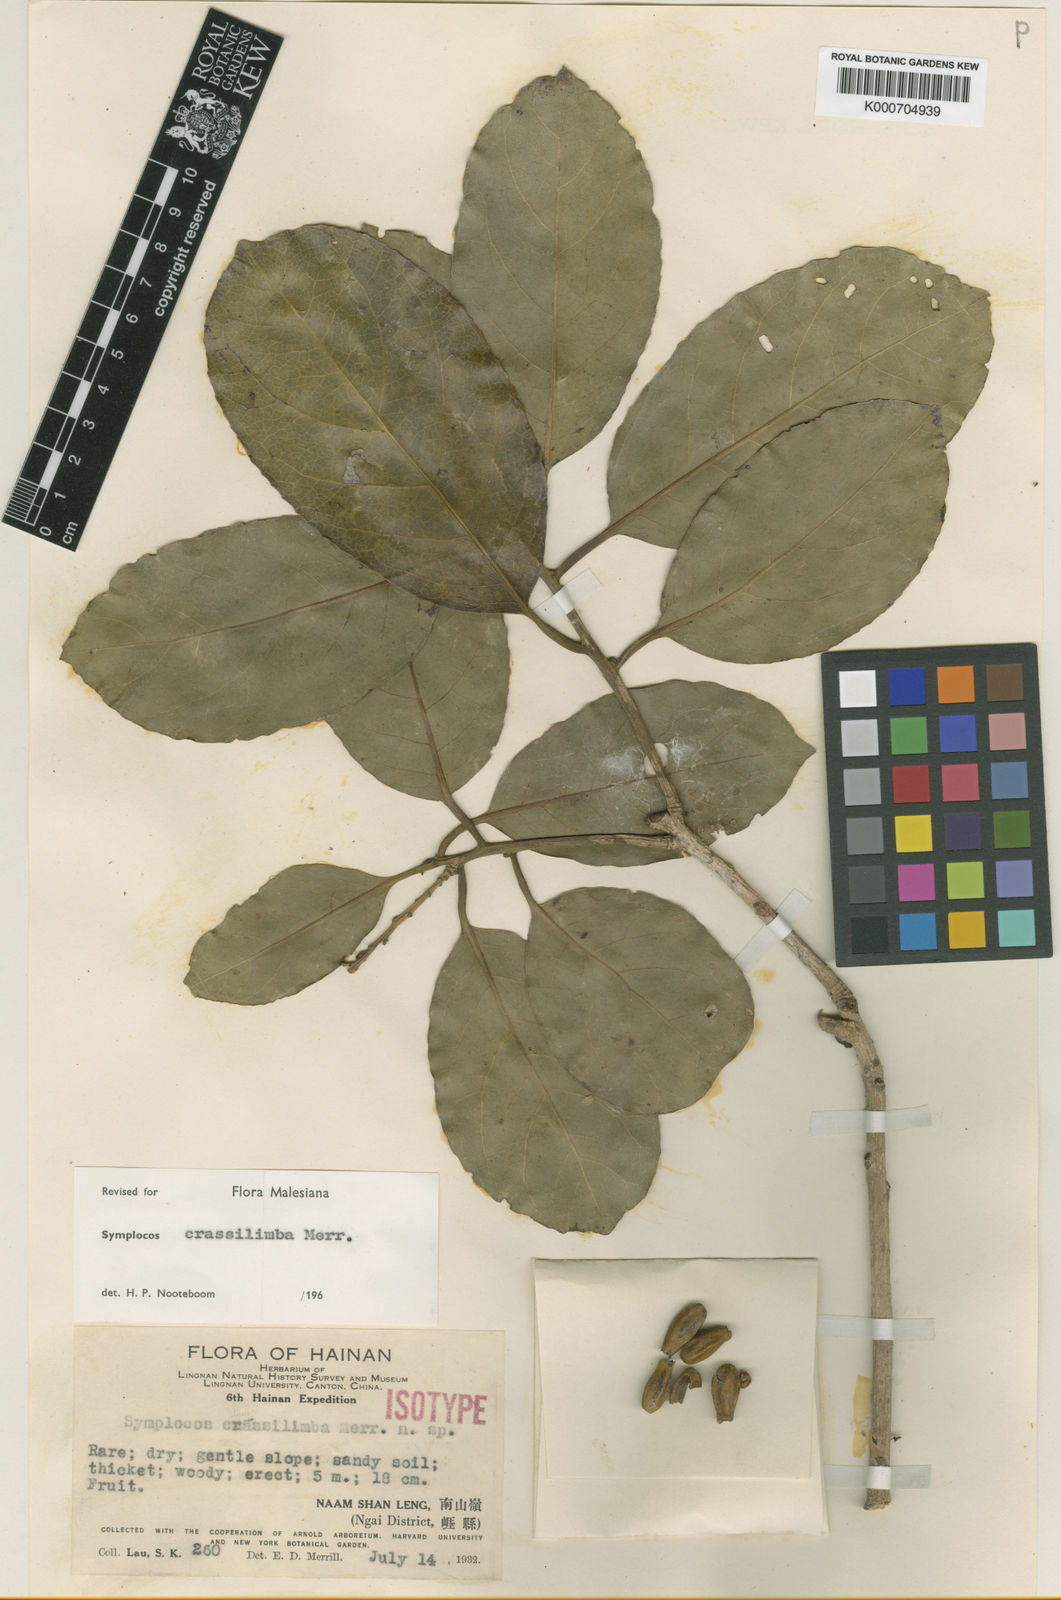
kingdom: Plantae
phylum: Tracheophyta
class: Magnoliopsida
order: Ericales
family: Symplocaceae
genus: Symplocos
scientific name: Symplocos crassilimba
